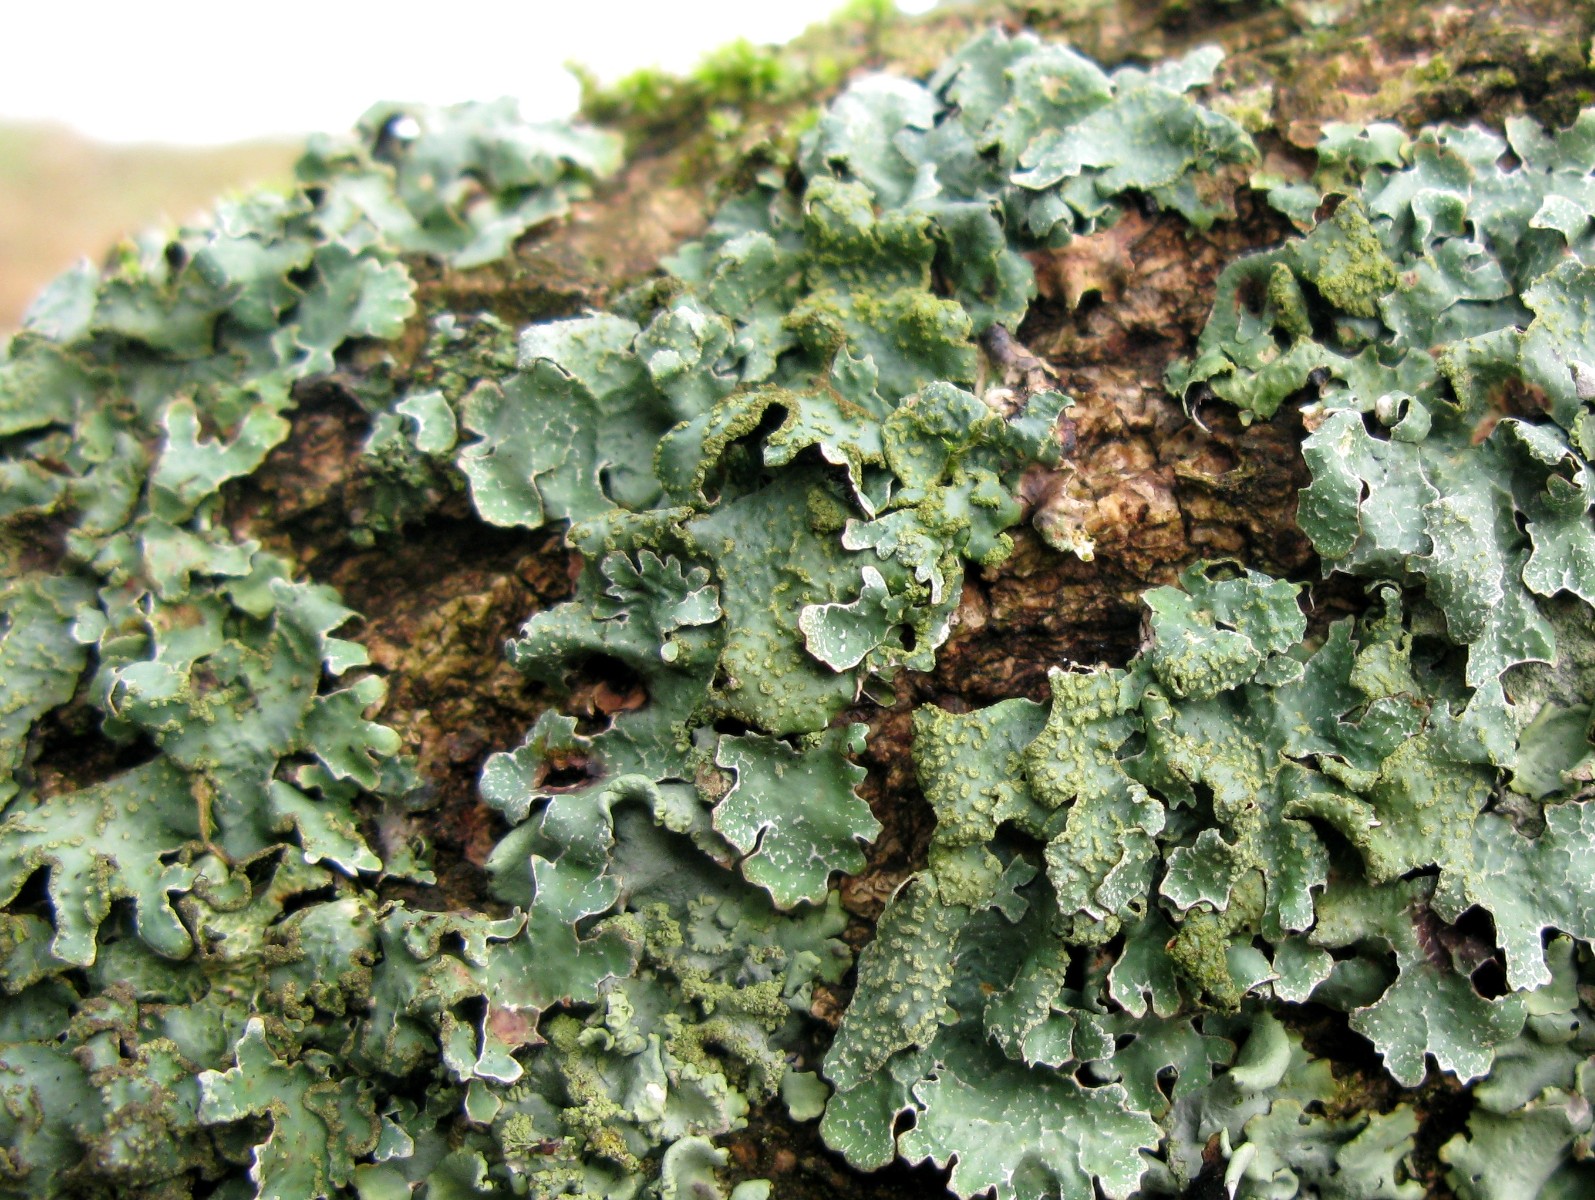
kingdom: Fungi
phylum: Ascomycota
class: Lecanoromycetes
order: Lecanorales
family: Parmeliaceae
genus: Parmelia
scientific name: Parmelia sulcata
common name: rynket skållav
